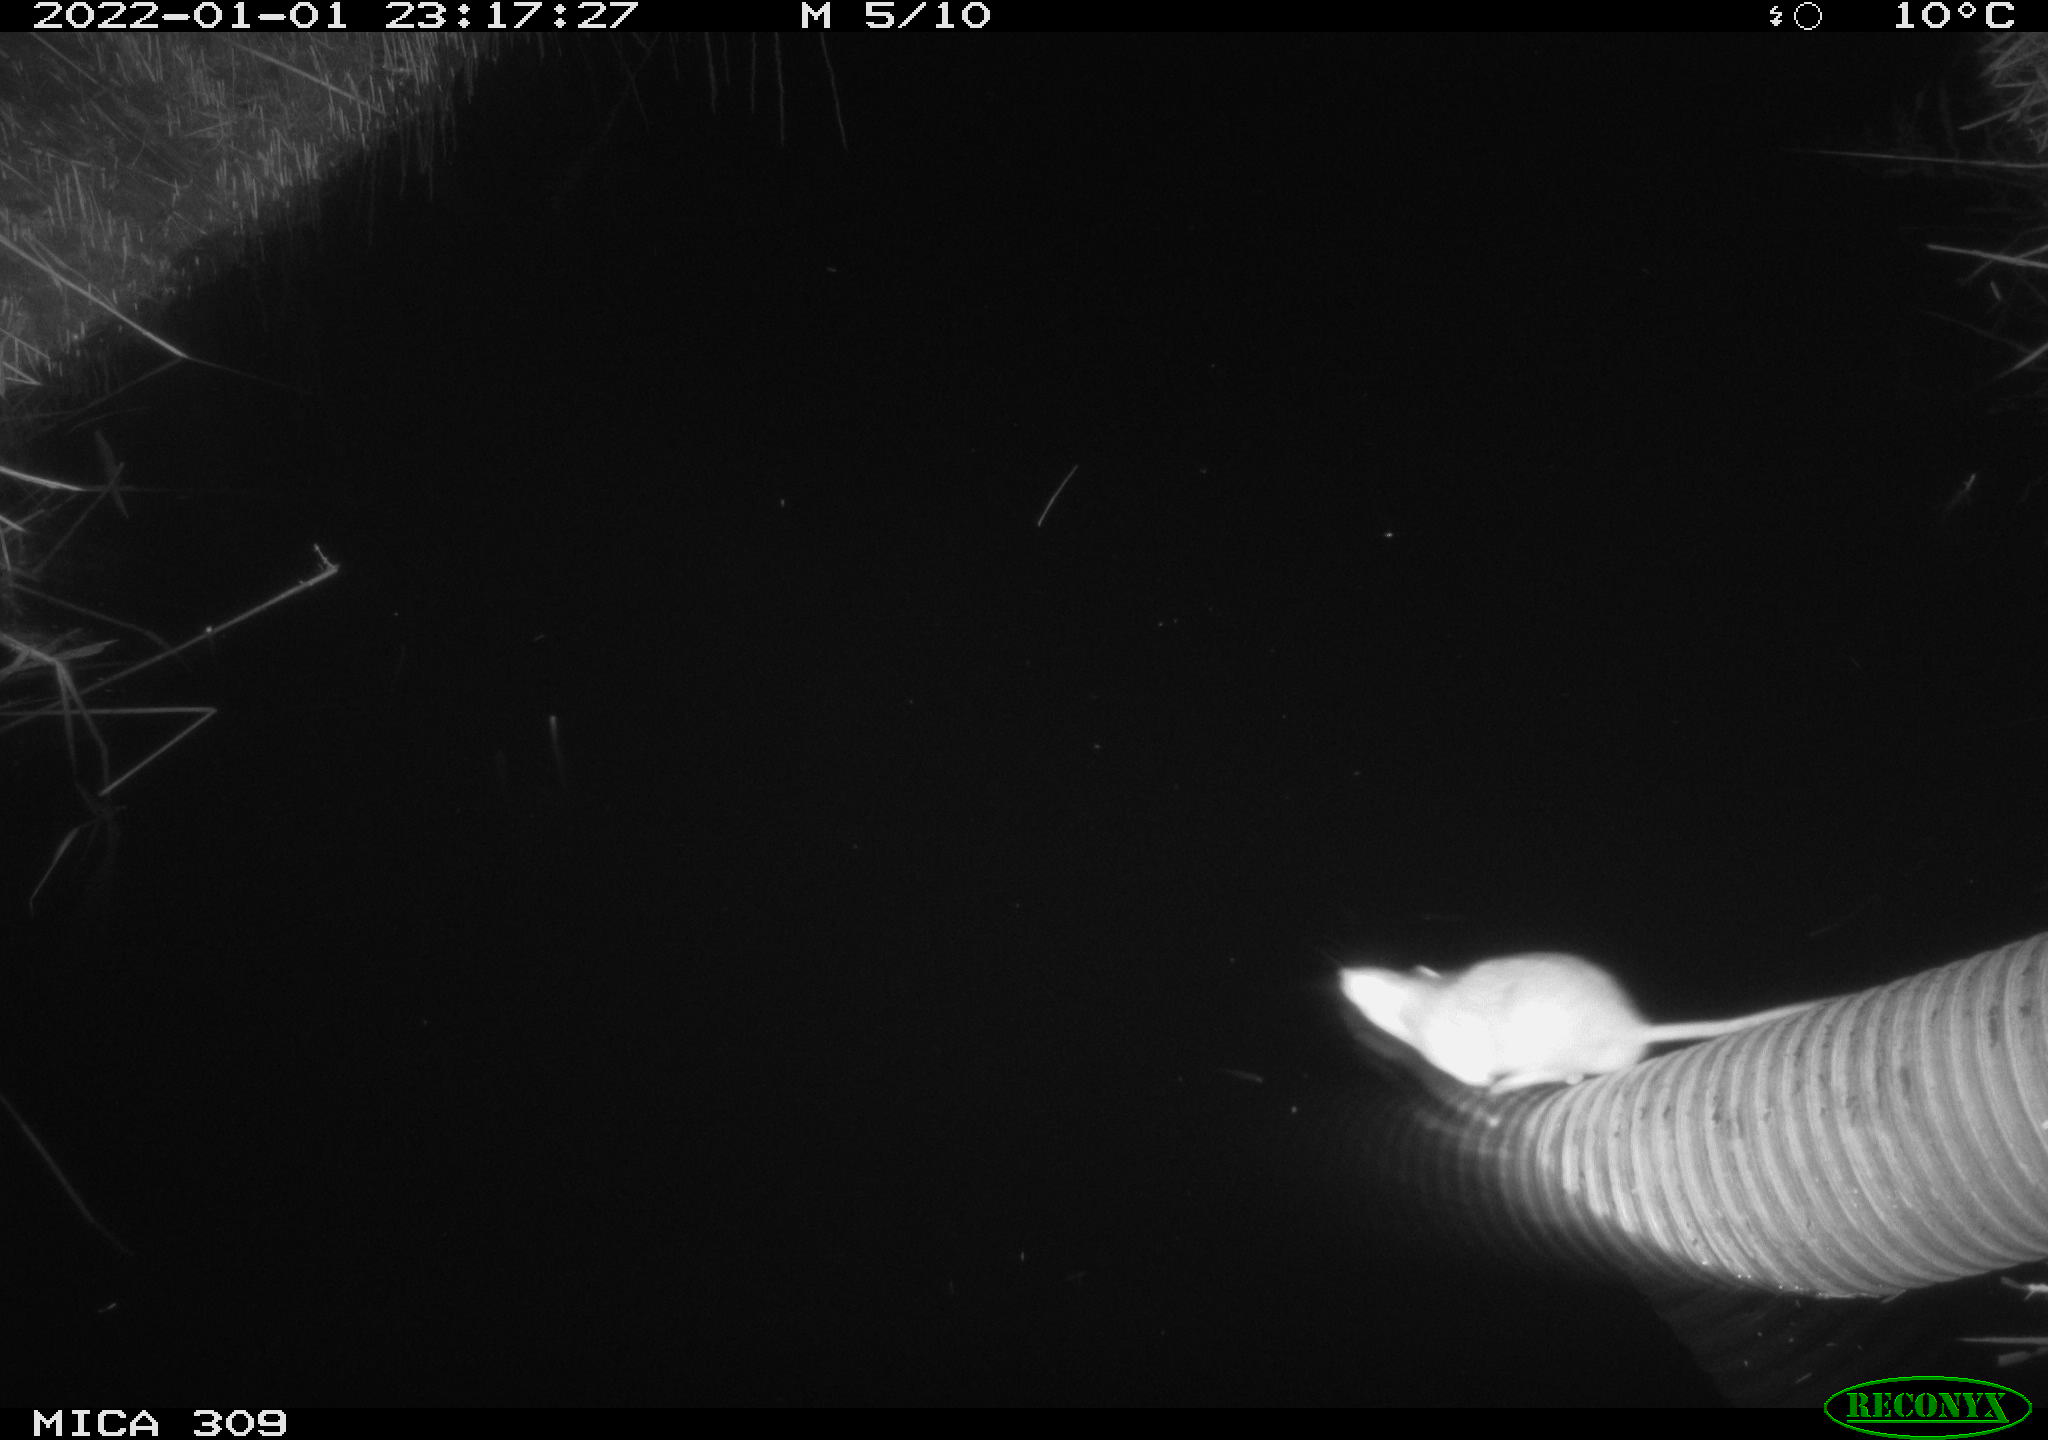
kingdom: Animalia
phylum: Chordata
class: Mammalia
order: Rodentia
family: Muridae
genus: Rattus
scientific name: Rattus norvegicus
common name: Brown rat
